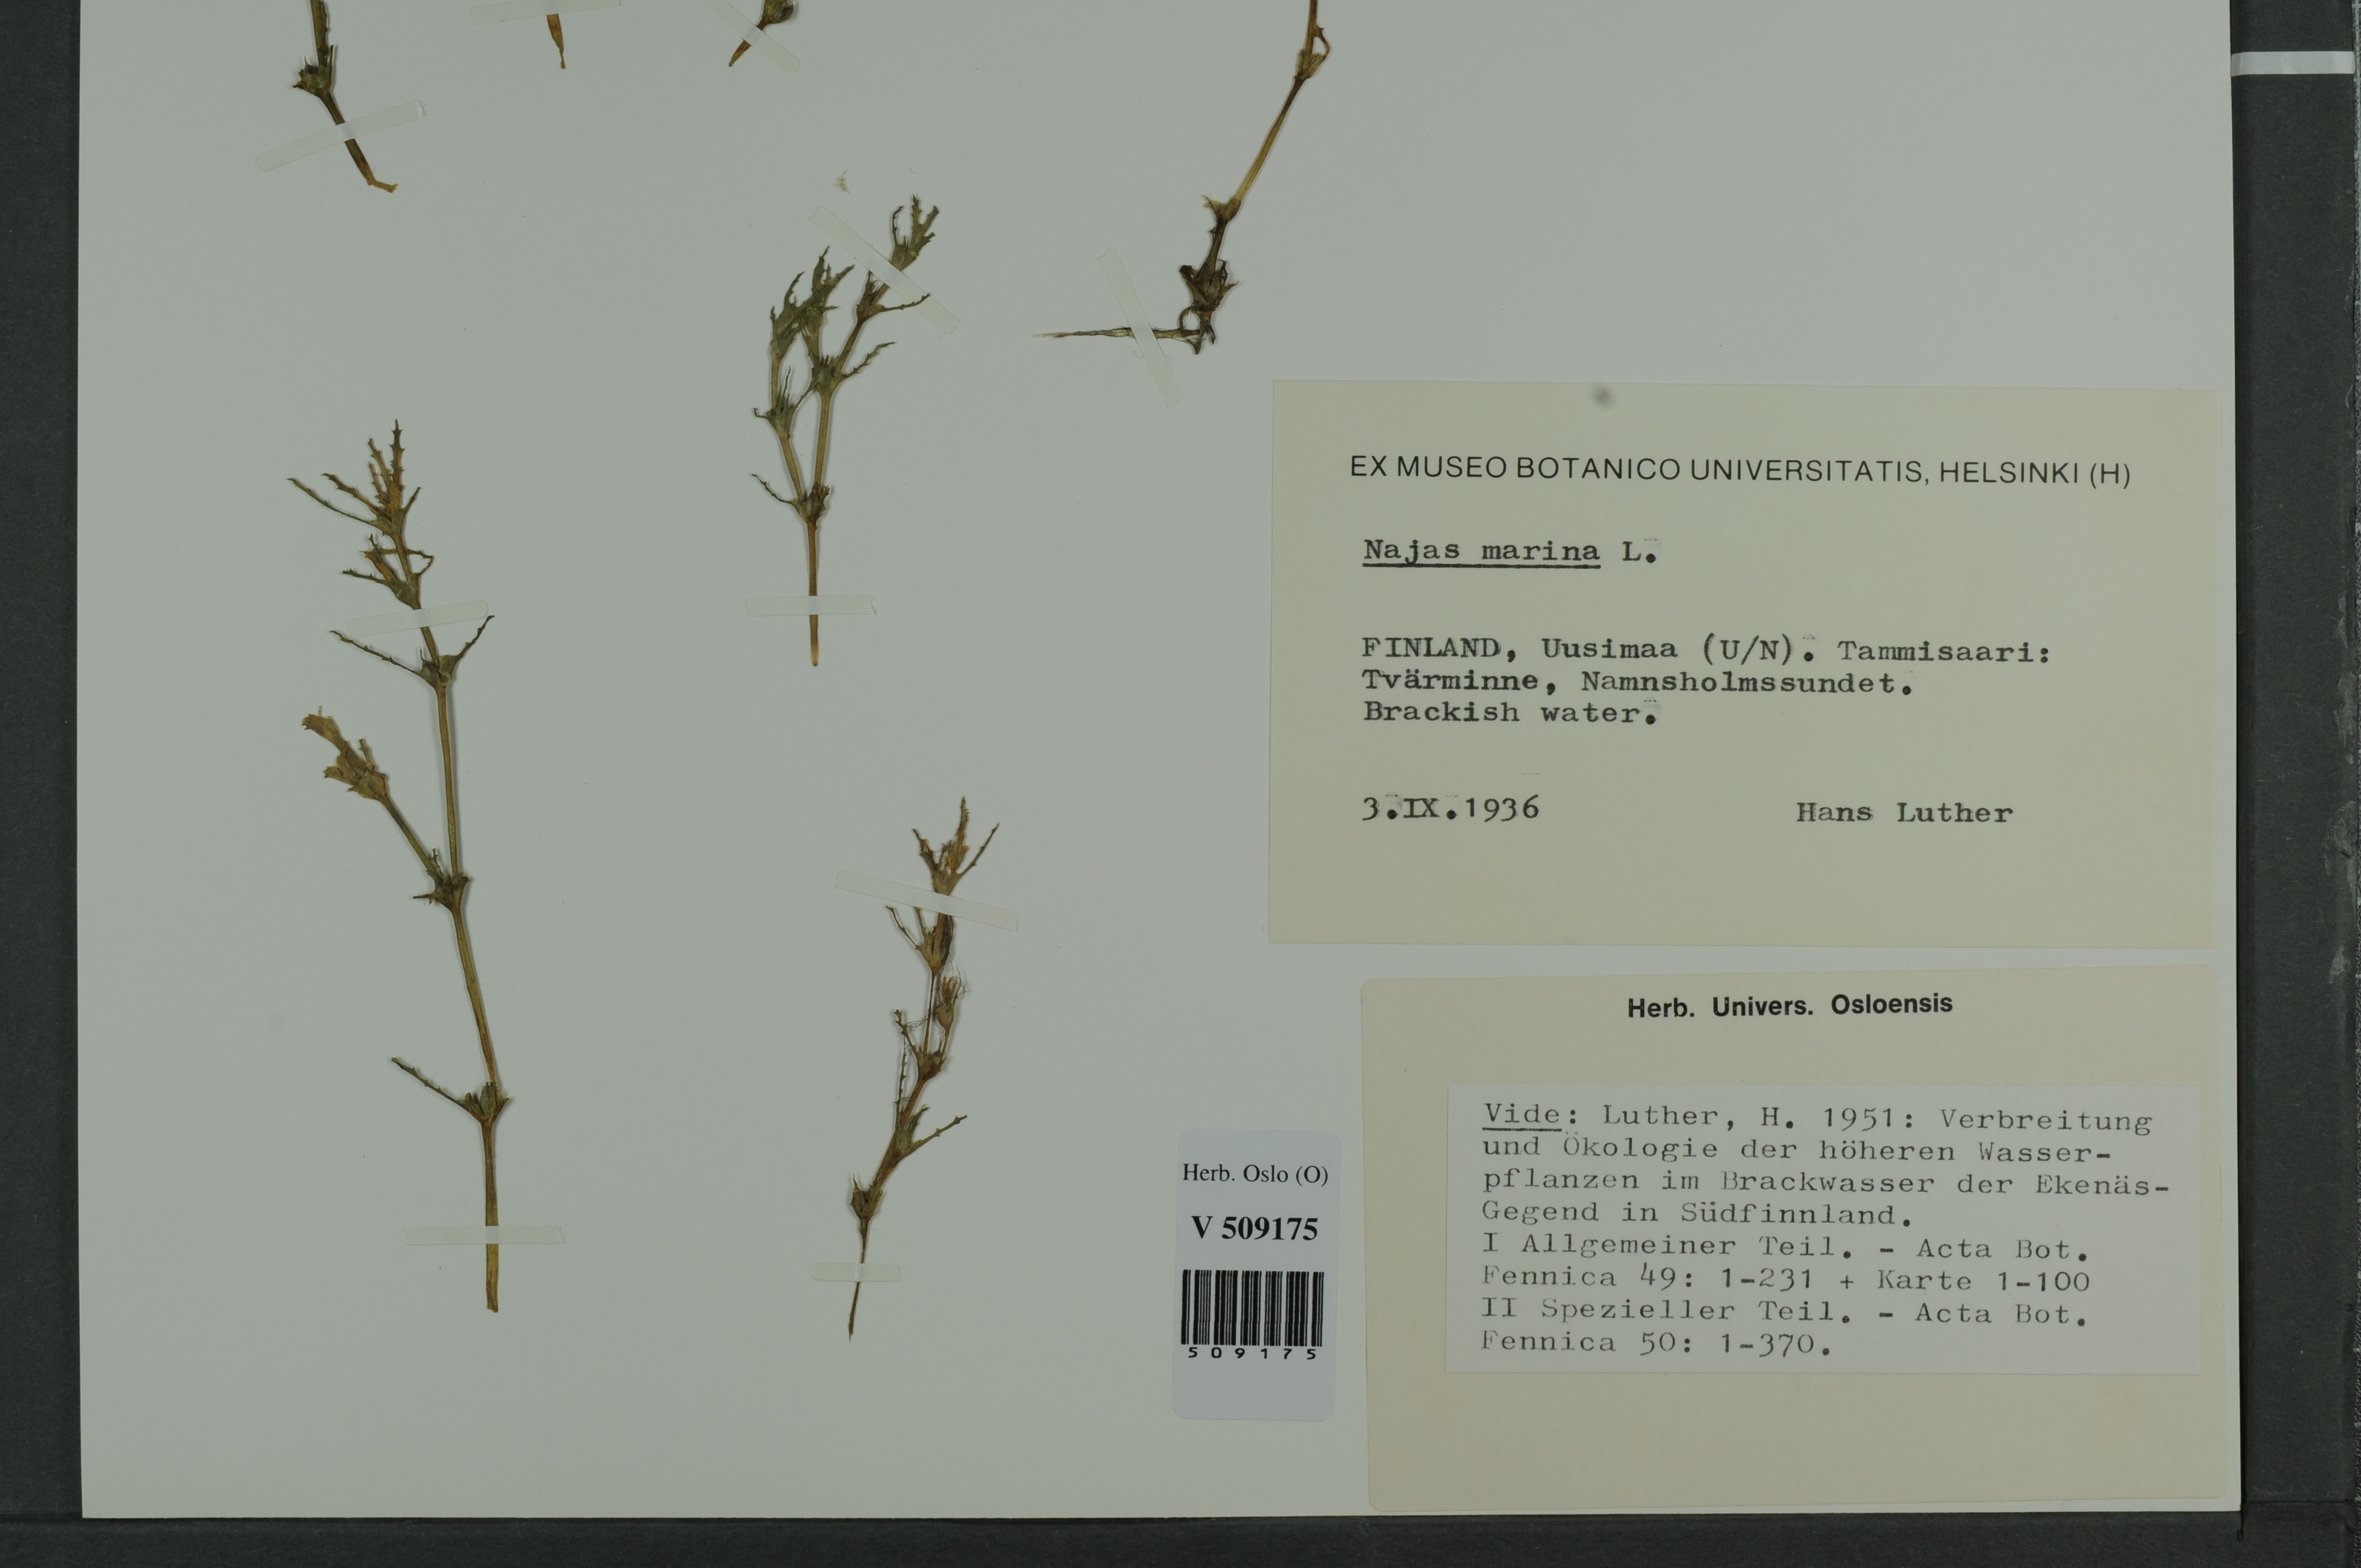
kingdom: Plantae
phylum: Tracheophyta
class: Liliopsida
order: Alismatales
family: Hydrocharitaceae
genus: Najas
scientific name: Najas marina
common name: Holly-leaved naiad
